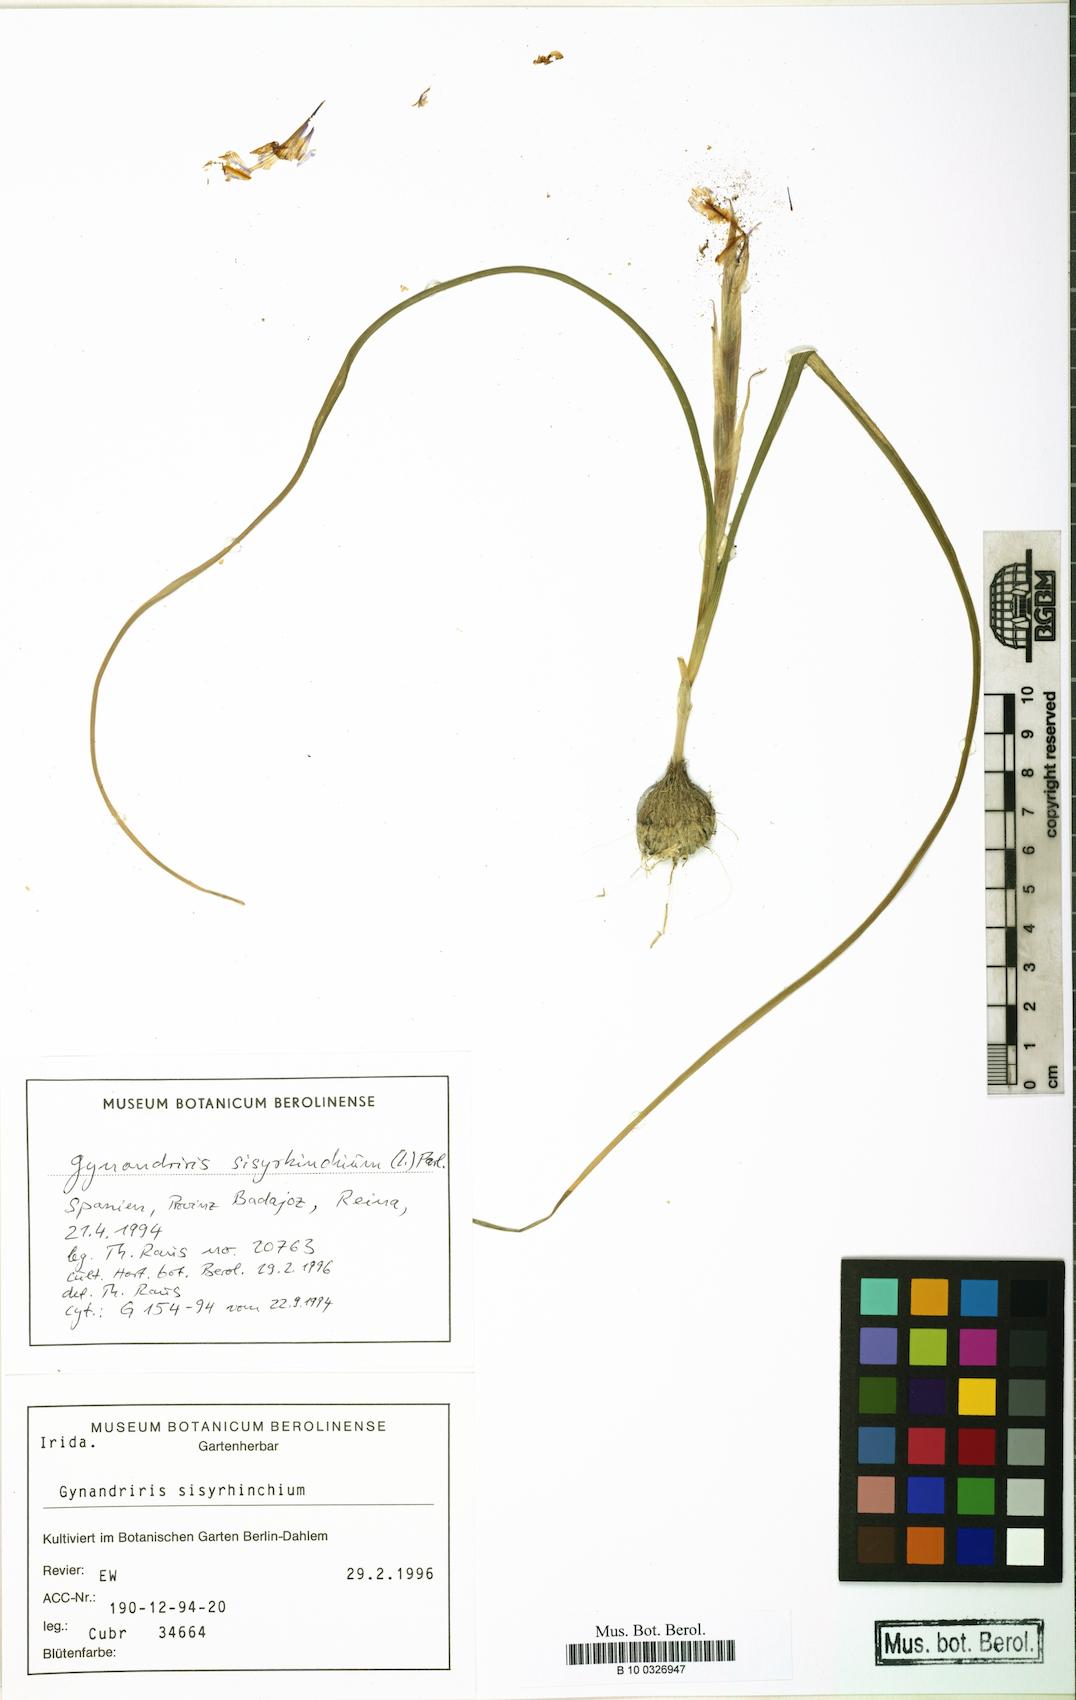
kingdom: Plantae
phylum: Tracheophyta
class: Liliopsida
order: Asparagales
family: Iridaceae
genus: Moraea
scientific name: Moraea sisyrinchium
